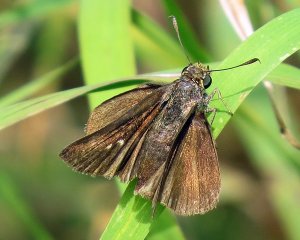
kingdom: Animalia
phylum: Arthropoda
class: Insecta
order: Lepidoptera
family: Hesperiidae
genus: Euphyes
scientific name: Euphyes vestris
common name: Dun Skipper
